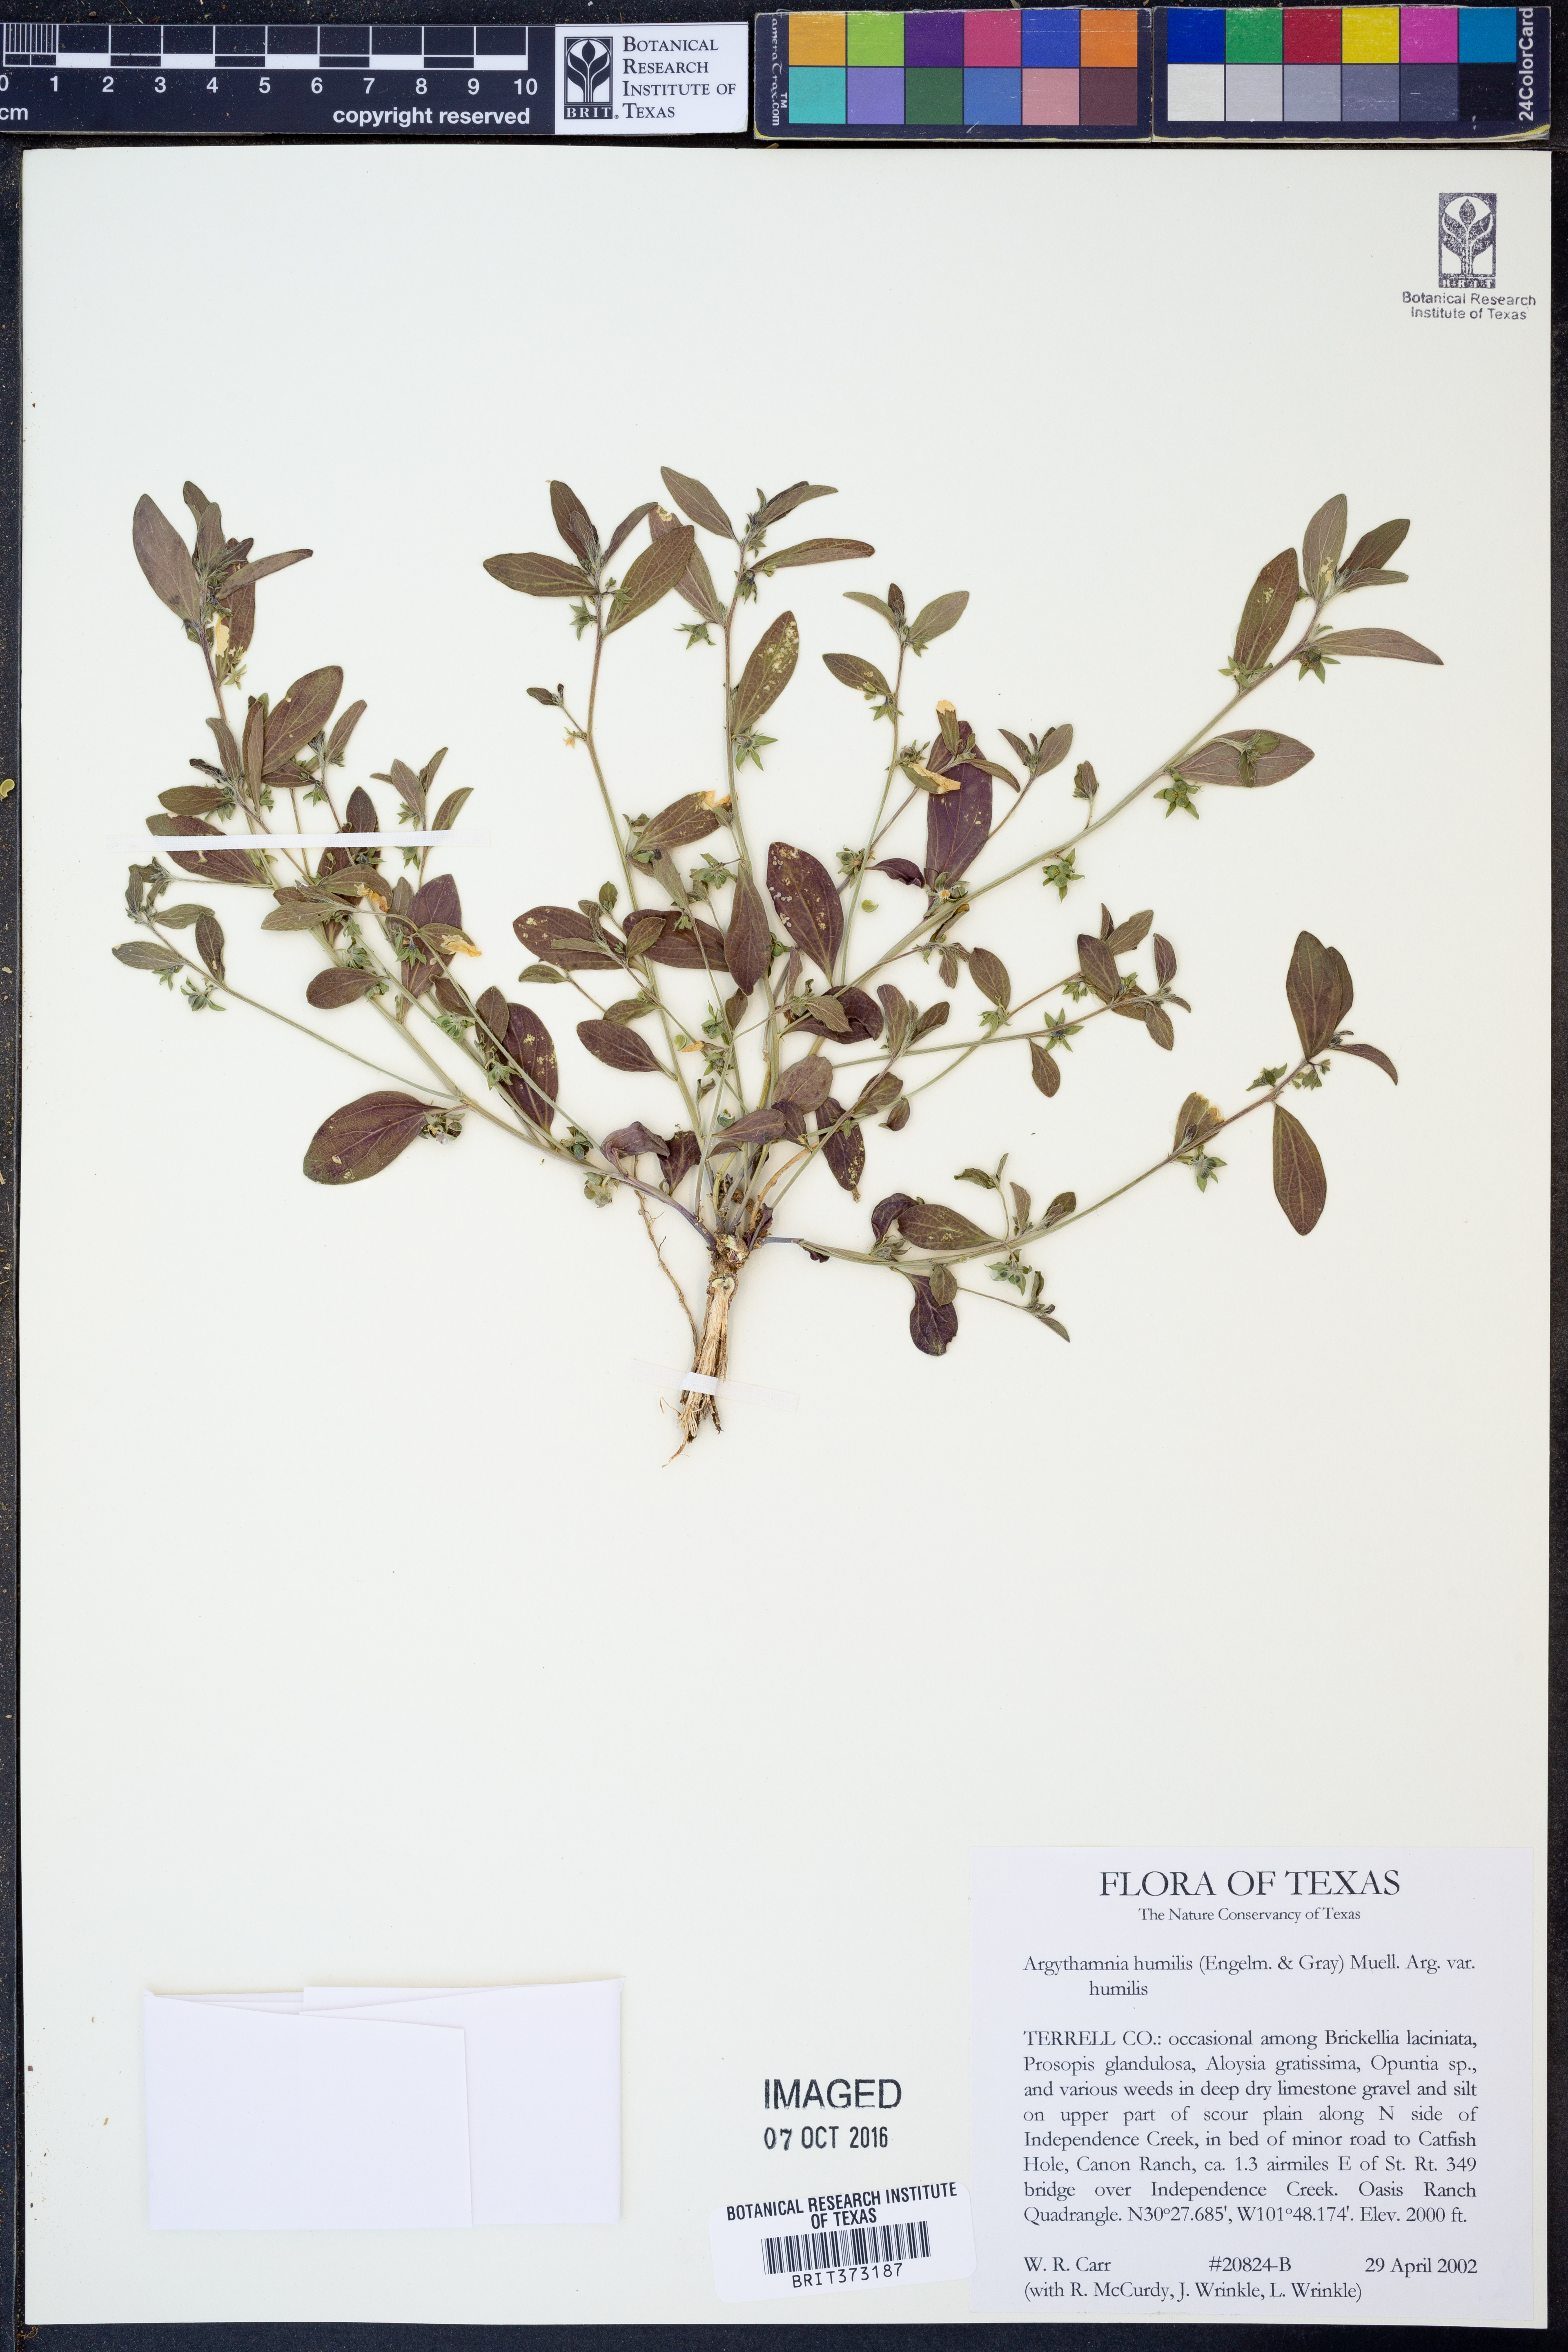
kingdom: Plantae
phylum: Tracheophyta
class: Magnoliopsida
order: Malpighiales
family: Euphorbiaceae
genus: Ditaxis
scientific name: Ditaxis humilis
